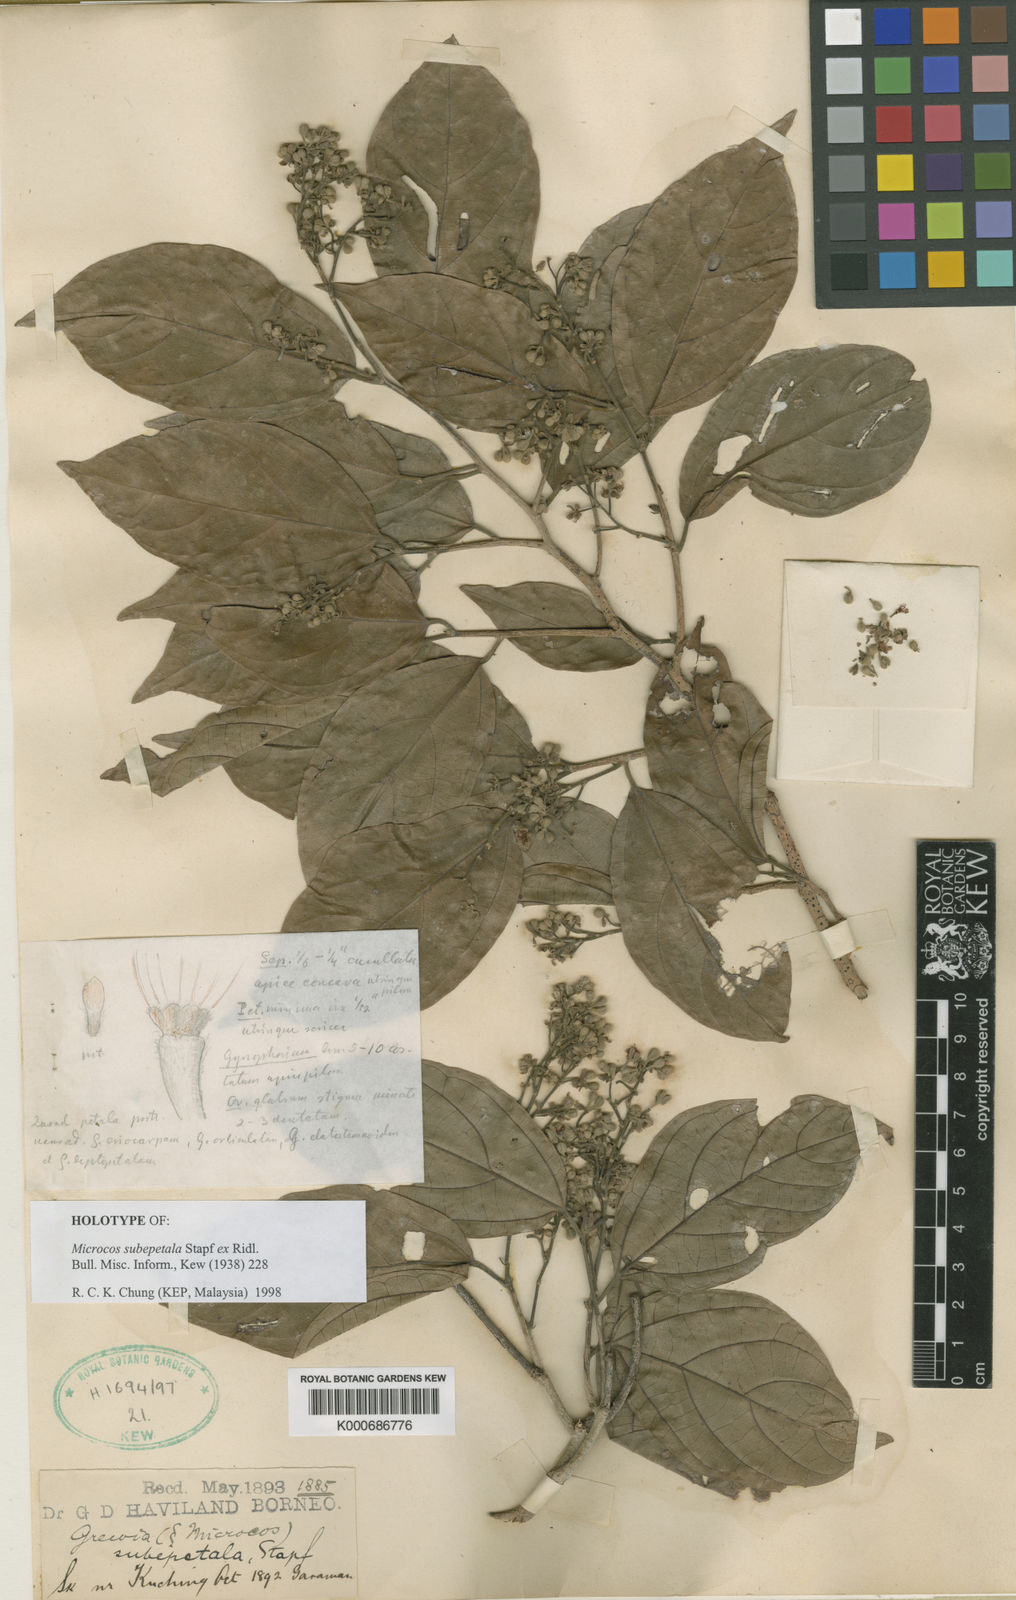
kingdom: Plantae
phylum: Tracheophyta
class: Magnoliopsida
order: Malvales
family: Malvaceae
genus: Microcos
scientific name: Microcos subepetala
